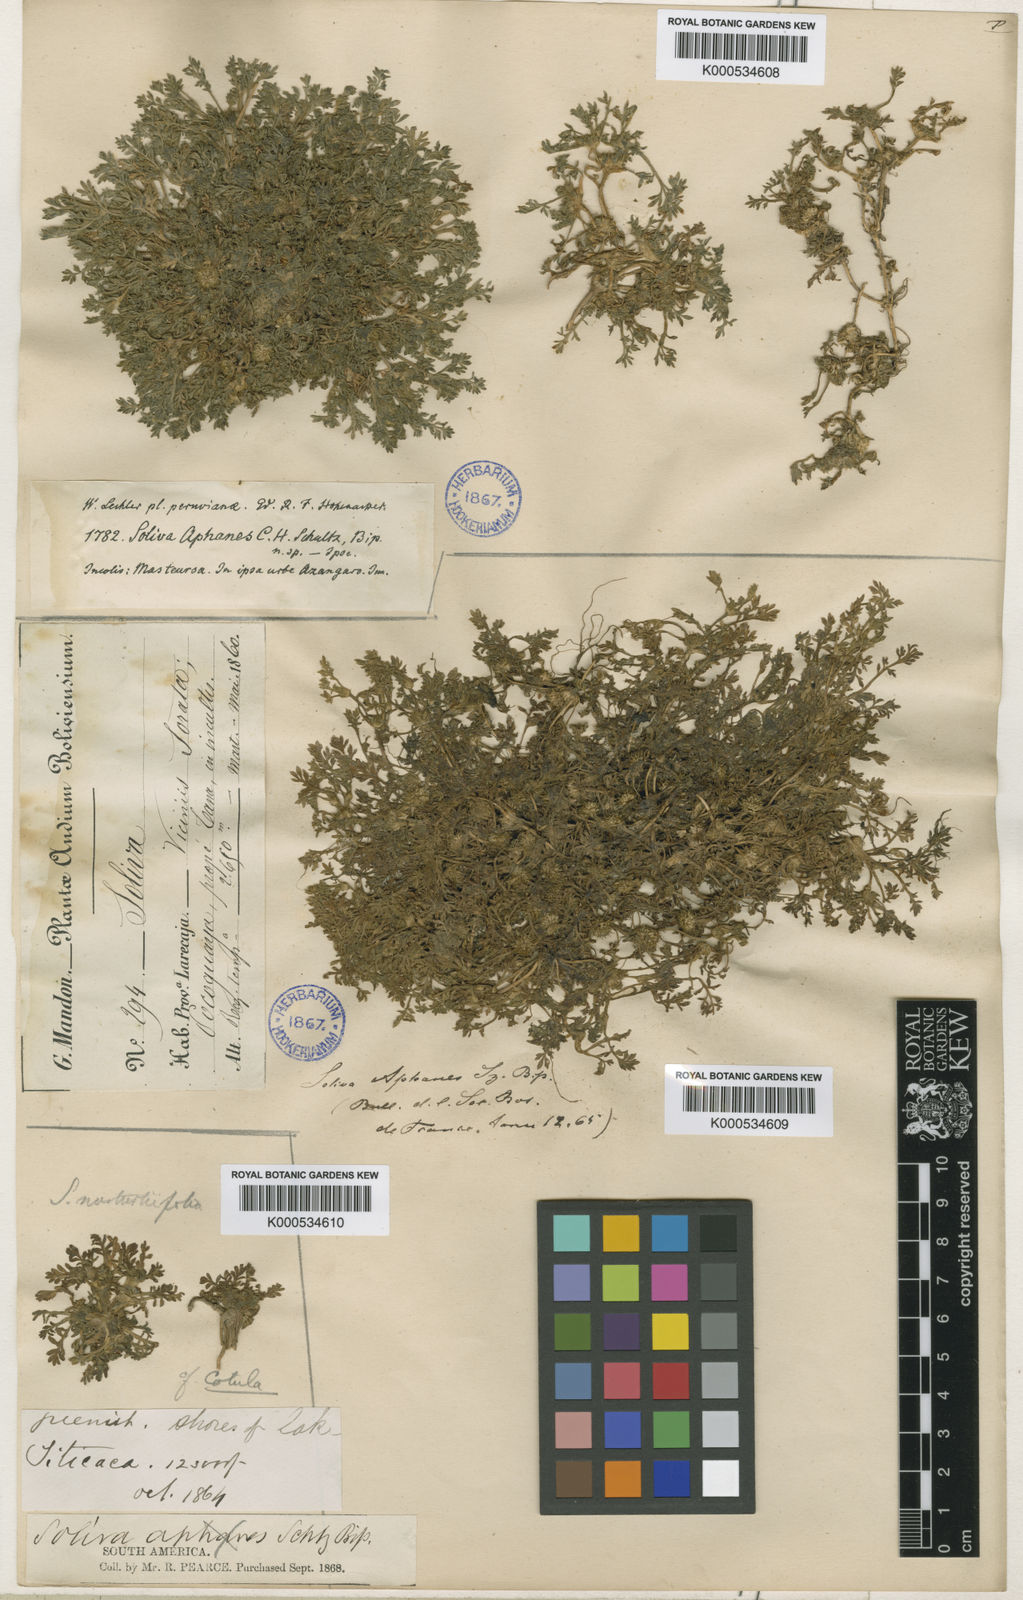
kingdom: Plantae
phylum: Tracheophyta
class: Magnoliopsida
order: Asterales
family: Asteraceae
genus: Soliva
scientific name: Soliva
